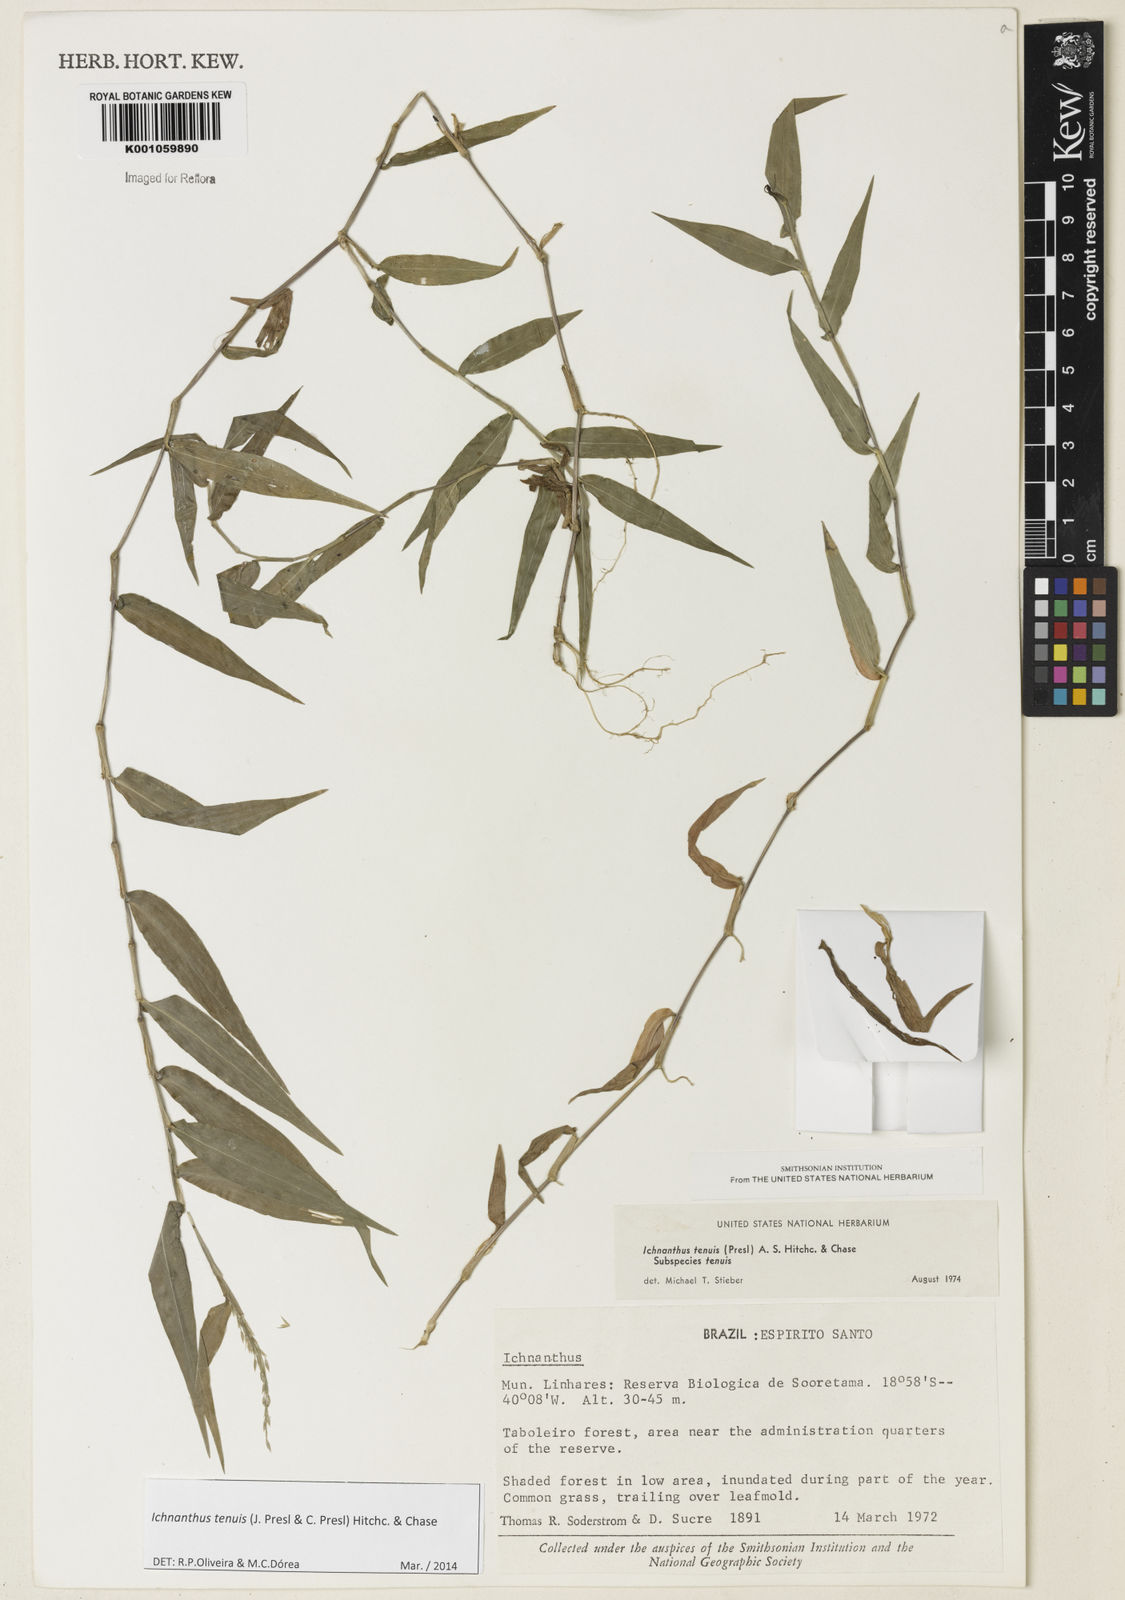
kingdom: Plantae
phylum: Tracheophyta
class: Liliopsida
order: Poales
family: Poaceae
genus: Ichnanthus
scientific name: Ichnanthus tenuis
